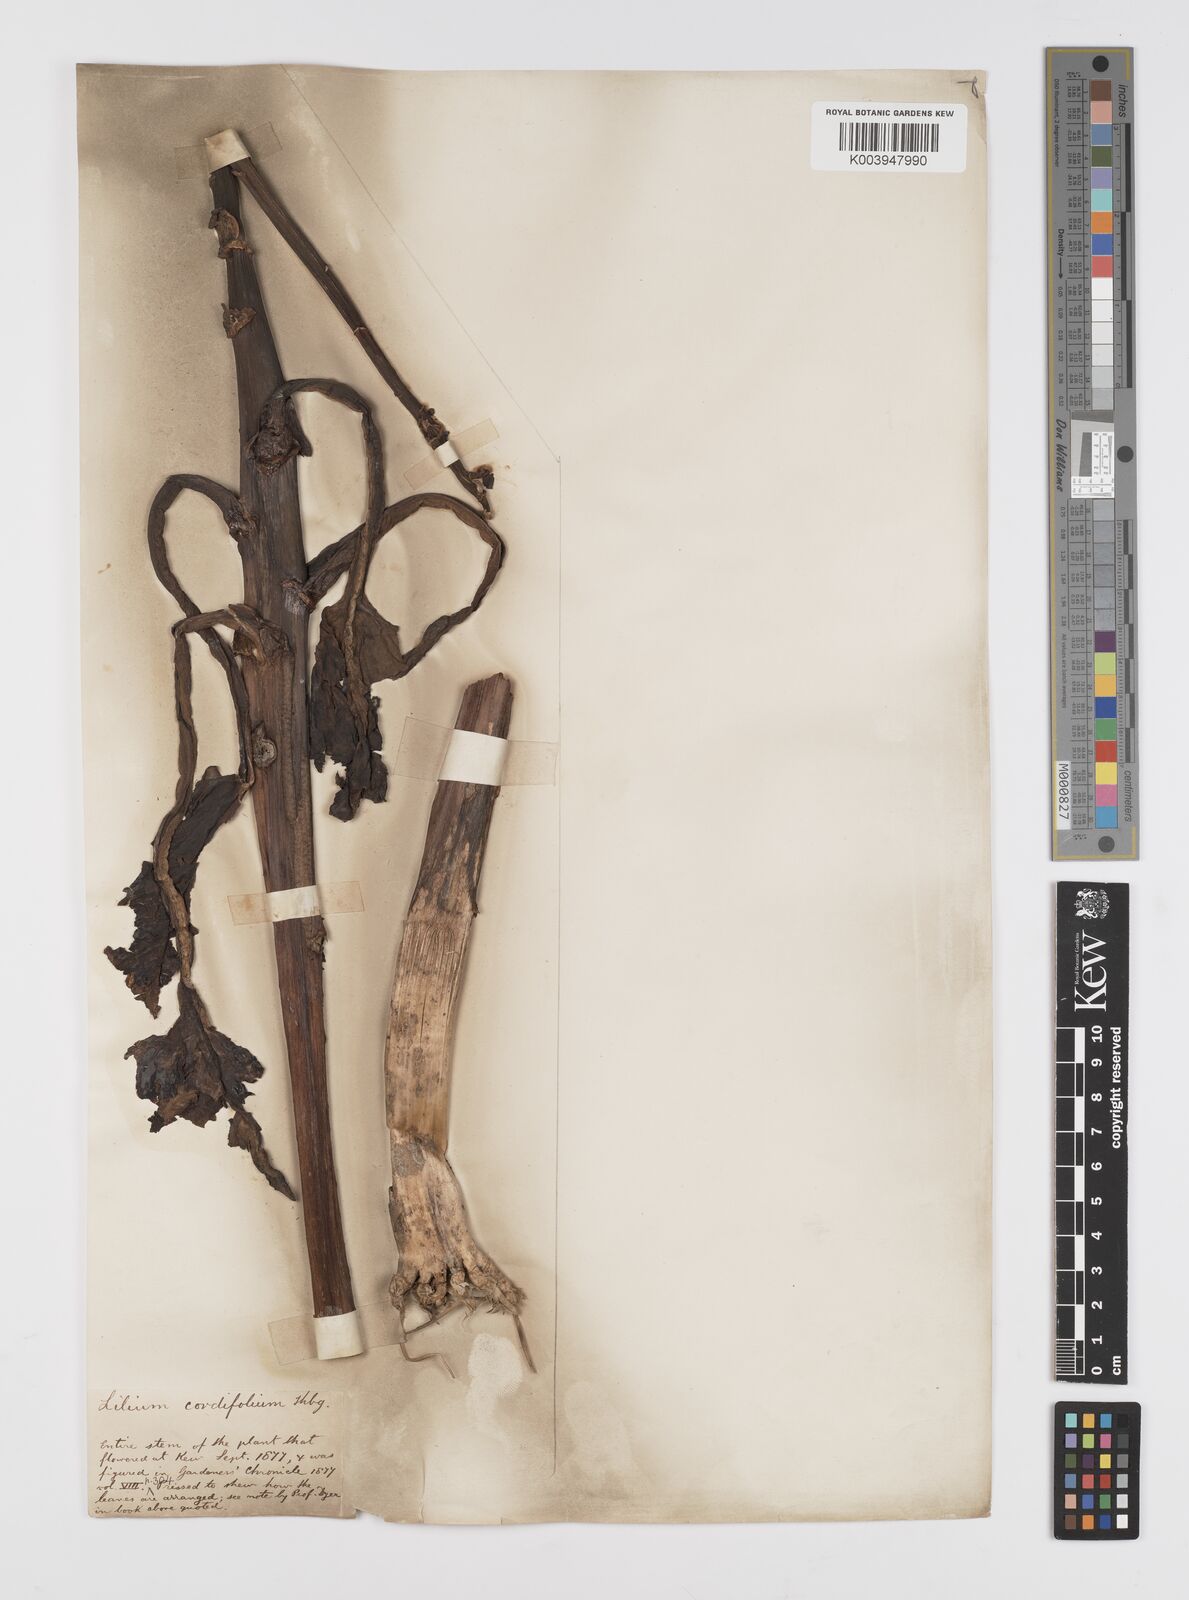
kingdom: Plantae
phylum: Tracheophyta
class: Liliopsida
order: Liliales
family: Liliaceae
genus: Cardiocrinum
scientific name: Cardiocrinum
